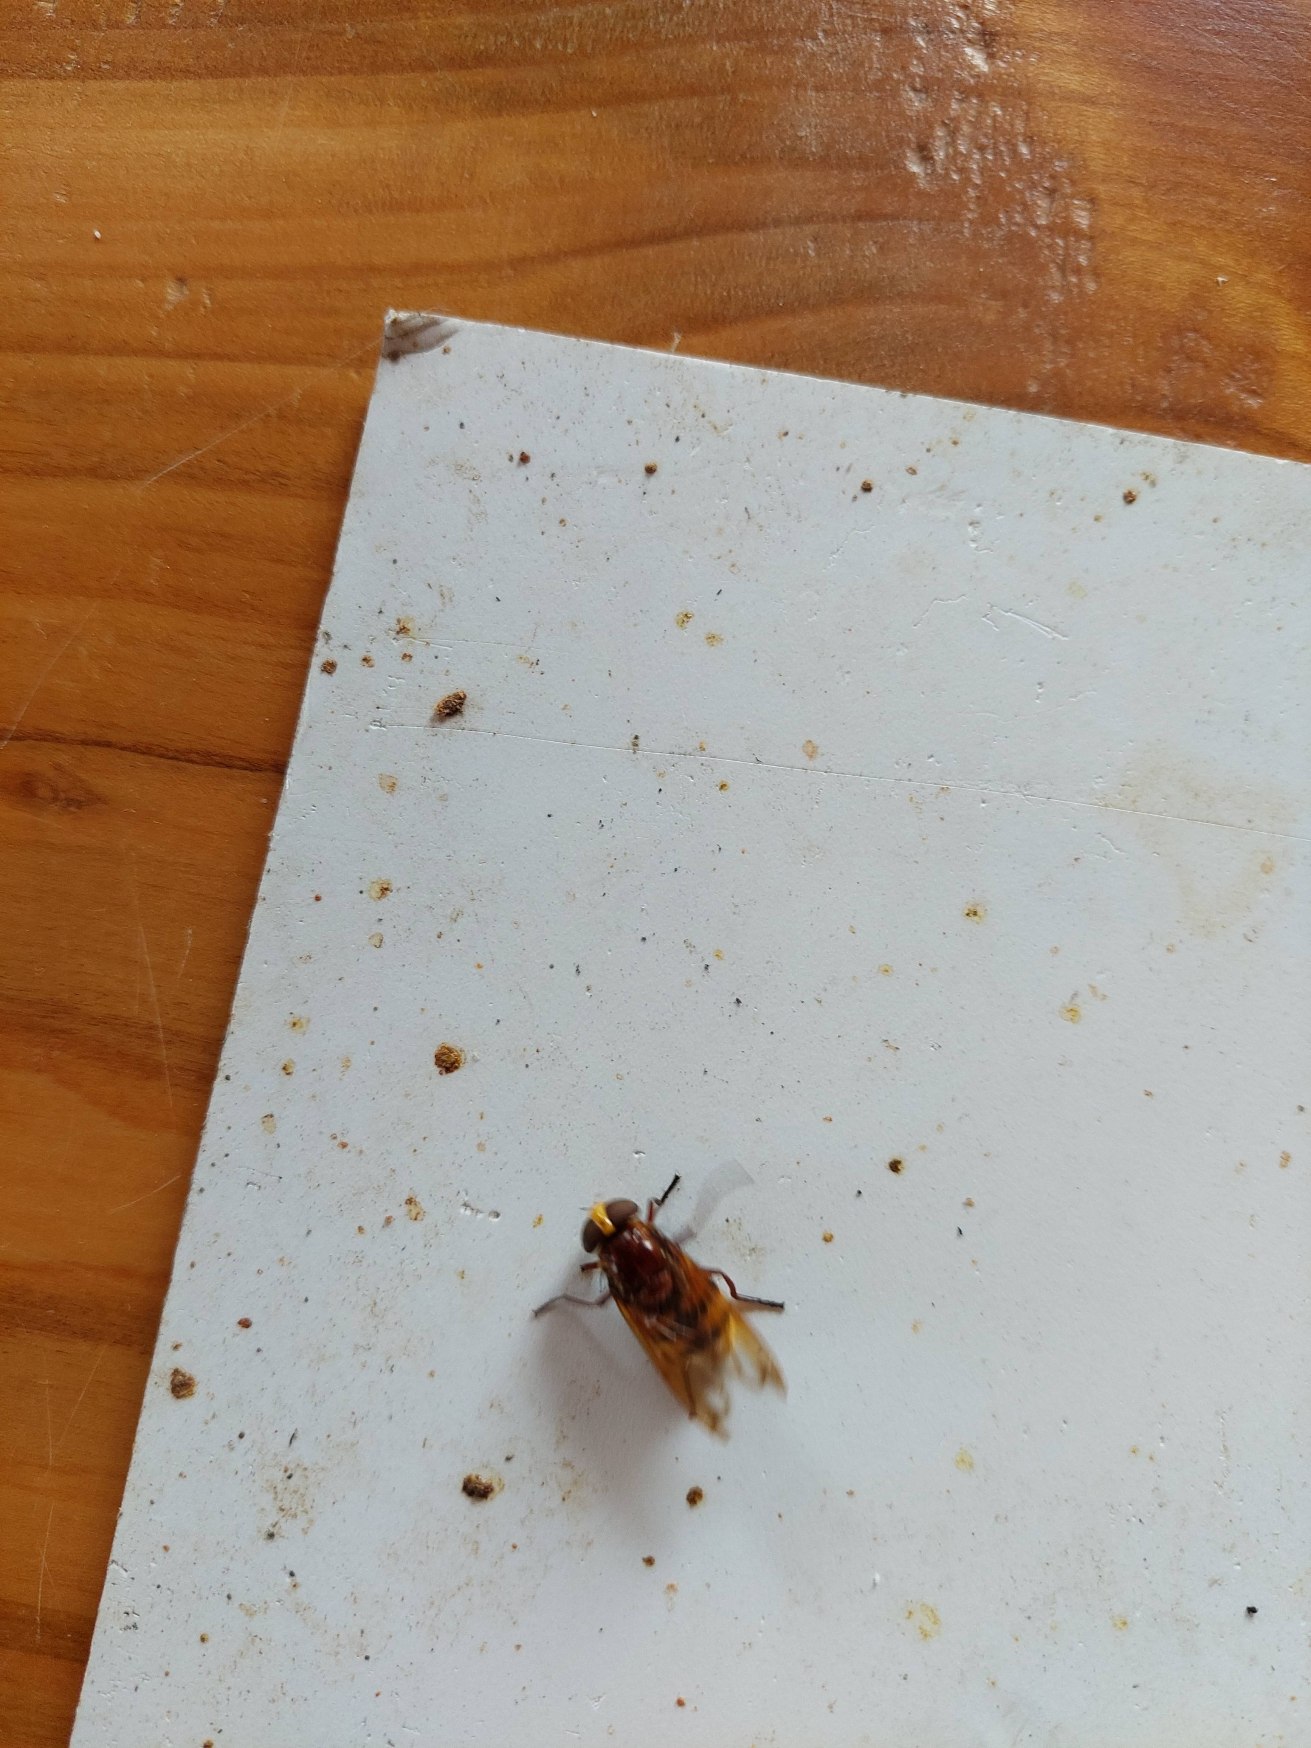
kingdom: Animalia
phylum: Arthropoda
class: Insecta
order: Diptera
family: Syrphidae
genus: Volucella
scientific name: Volucella zonaria
